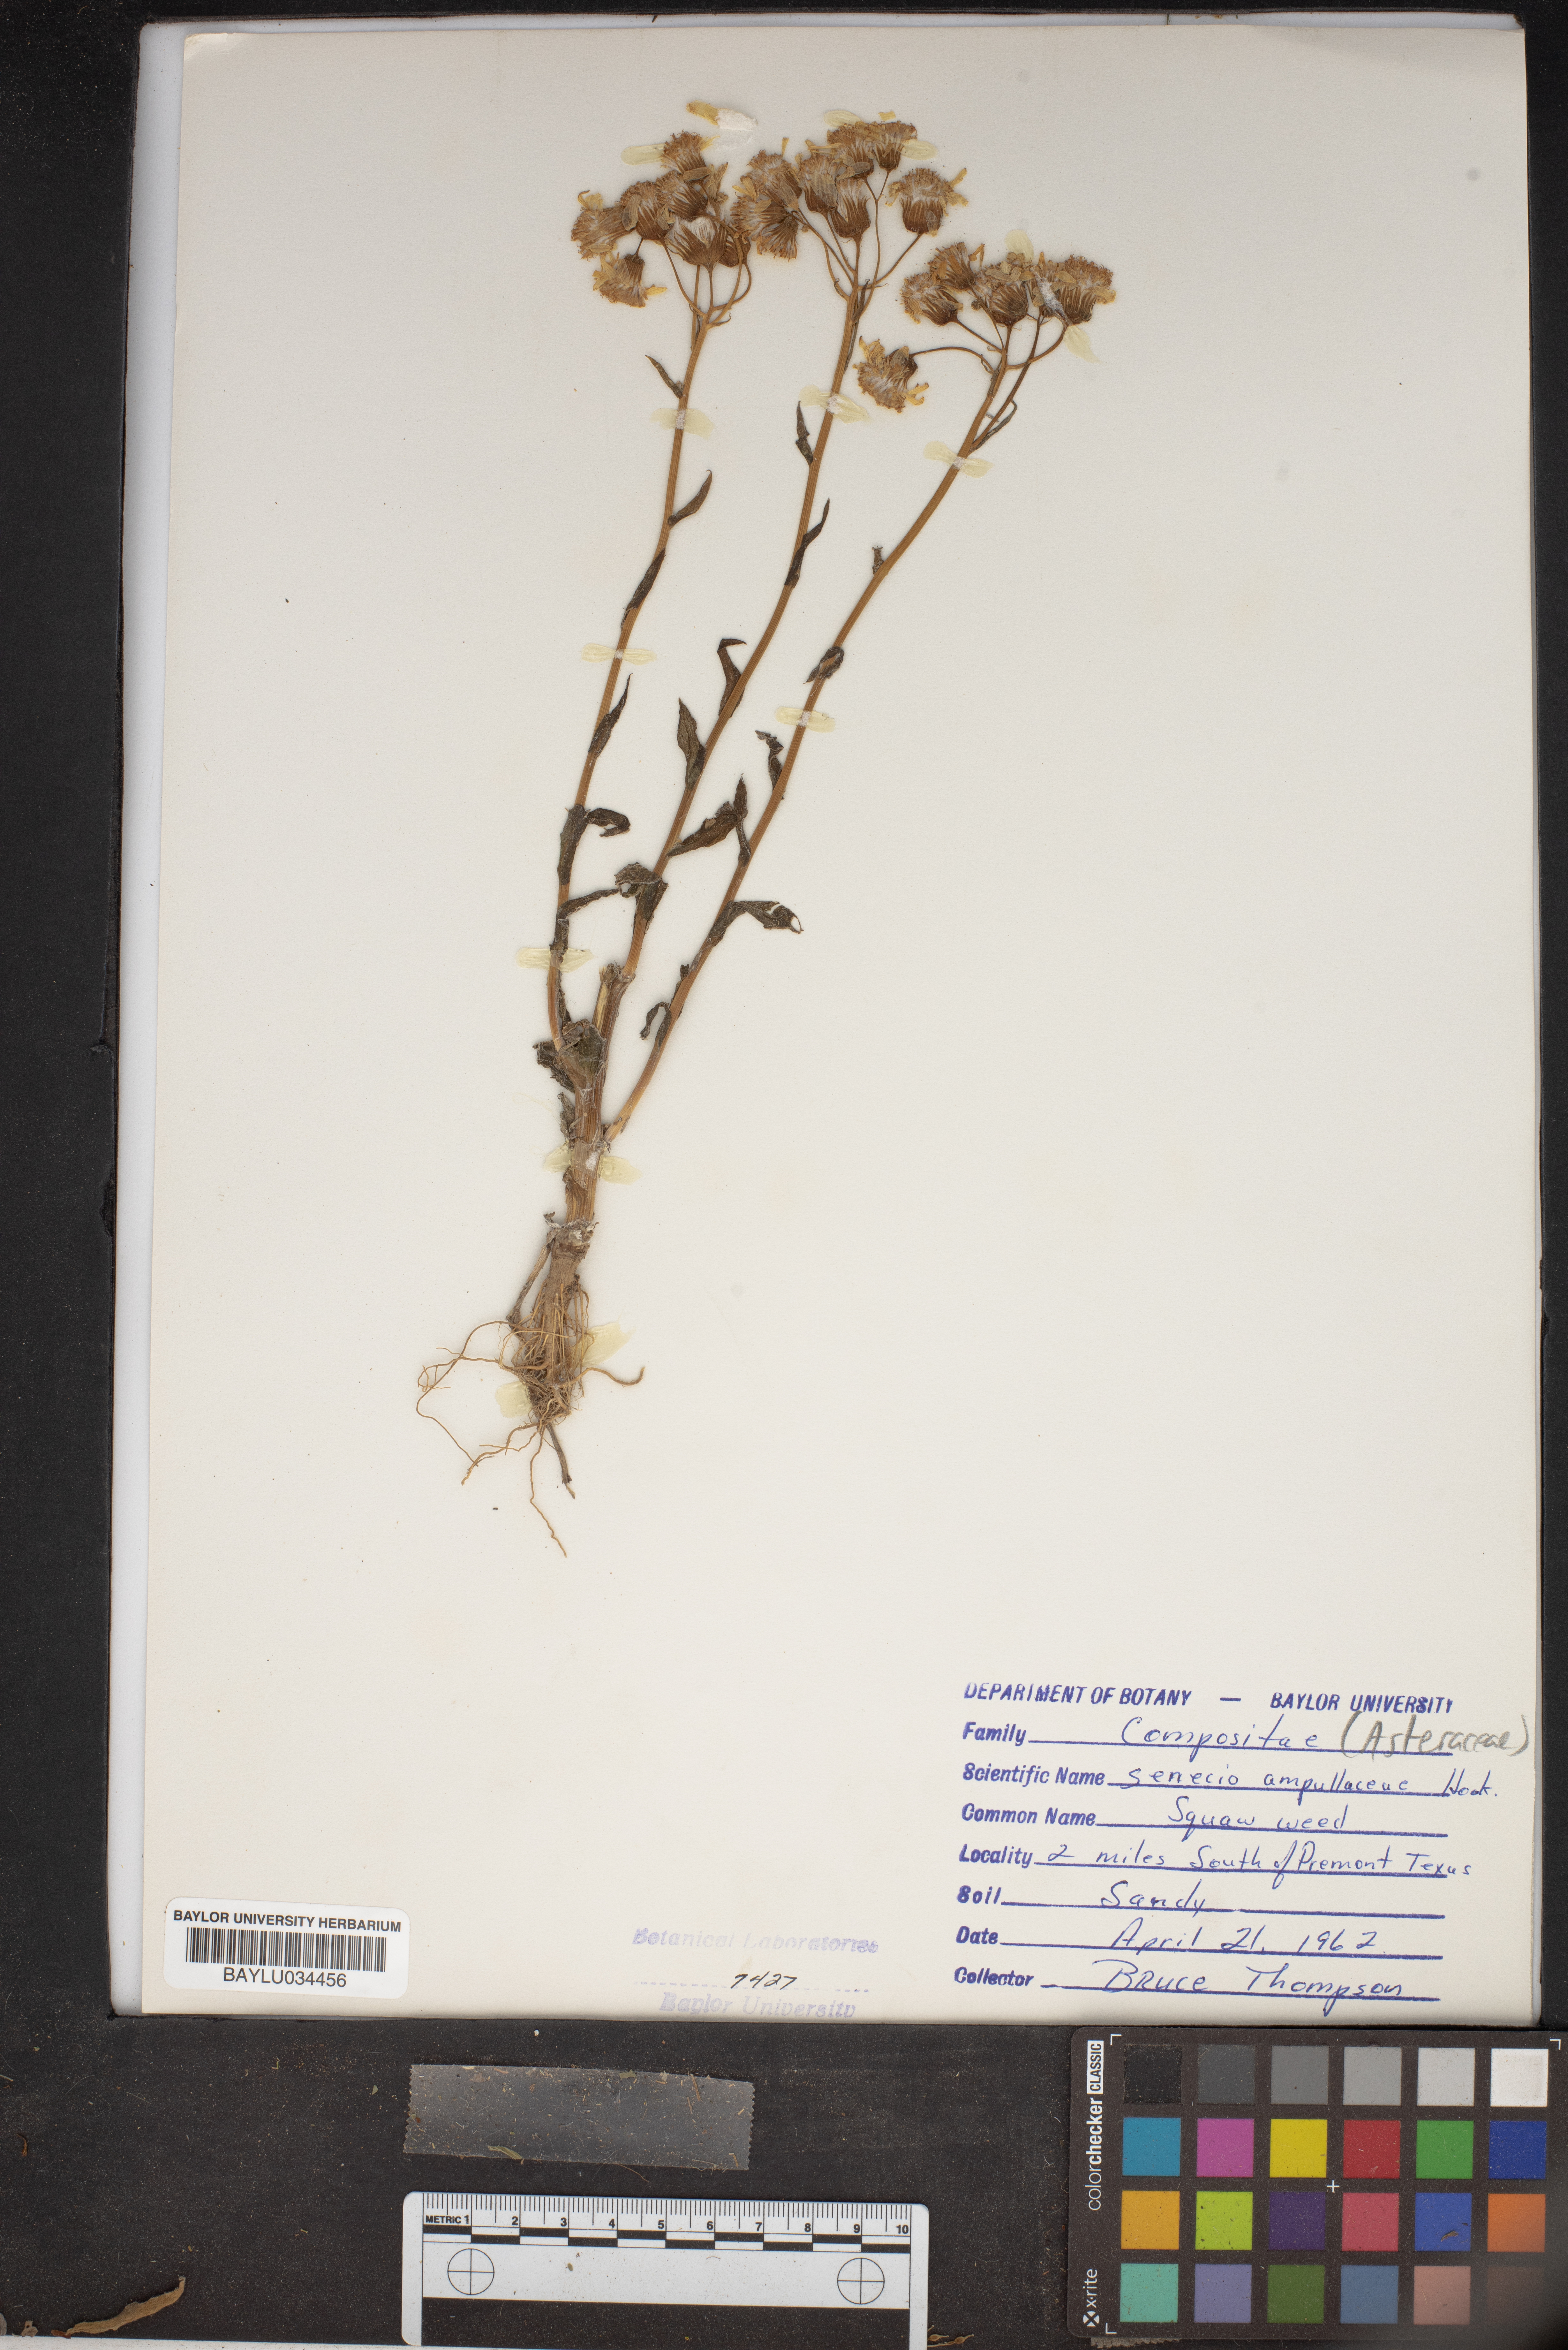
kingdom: Plantae
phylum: Tracheophyta
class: Magnoliopsida
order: Asterales
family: Asteraceae
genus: Senecio
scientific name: Senecio ampullaceus
